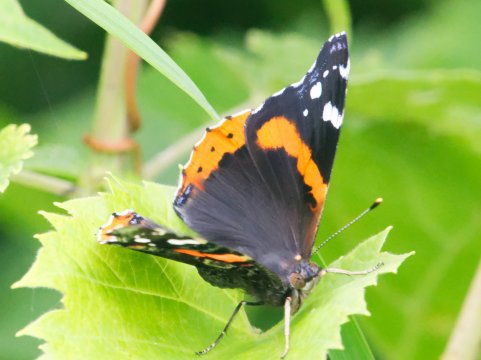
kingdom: Animalia
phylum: Arthropoda
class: Insecta
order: Lepidoptera
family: Nymphalidae
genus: Vanessa
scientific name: Vanessa atalanta
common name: Red Admiral
